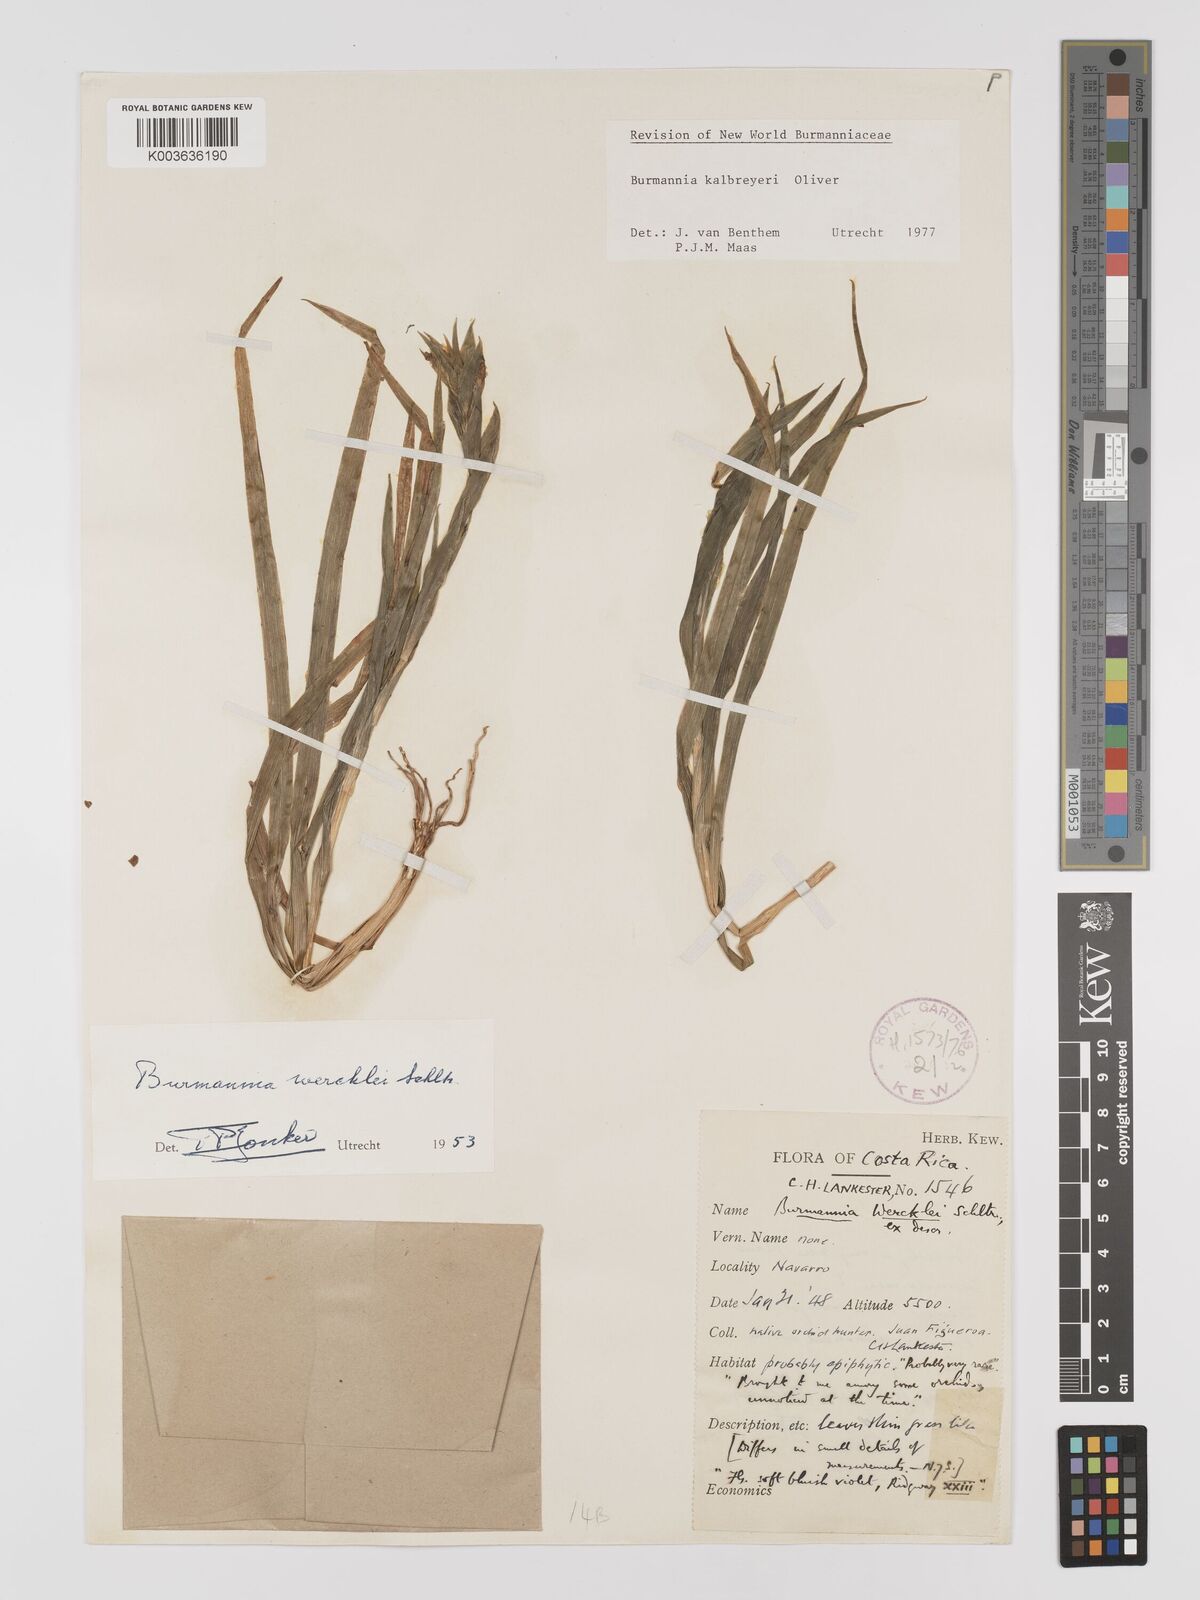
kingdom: Plantae
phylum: Tracheophyta
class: Liliopsida
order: Dioscoreales
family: Burmanniaceae
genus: Burmannia
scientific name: Burmannia kalbreyeri
